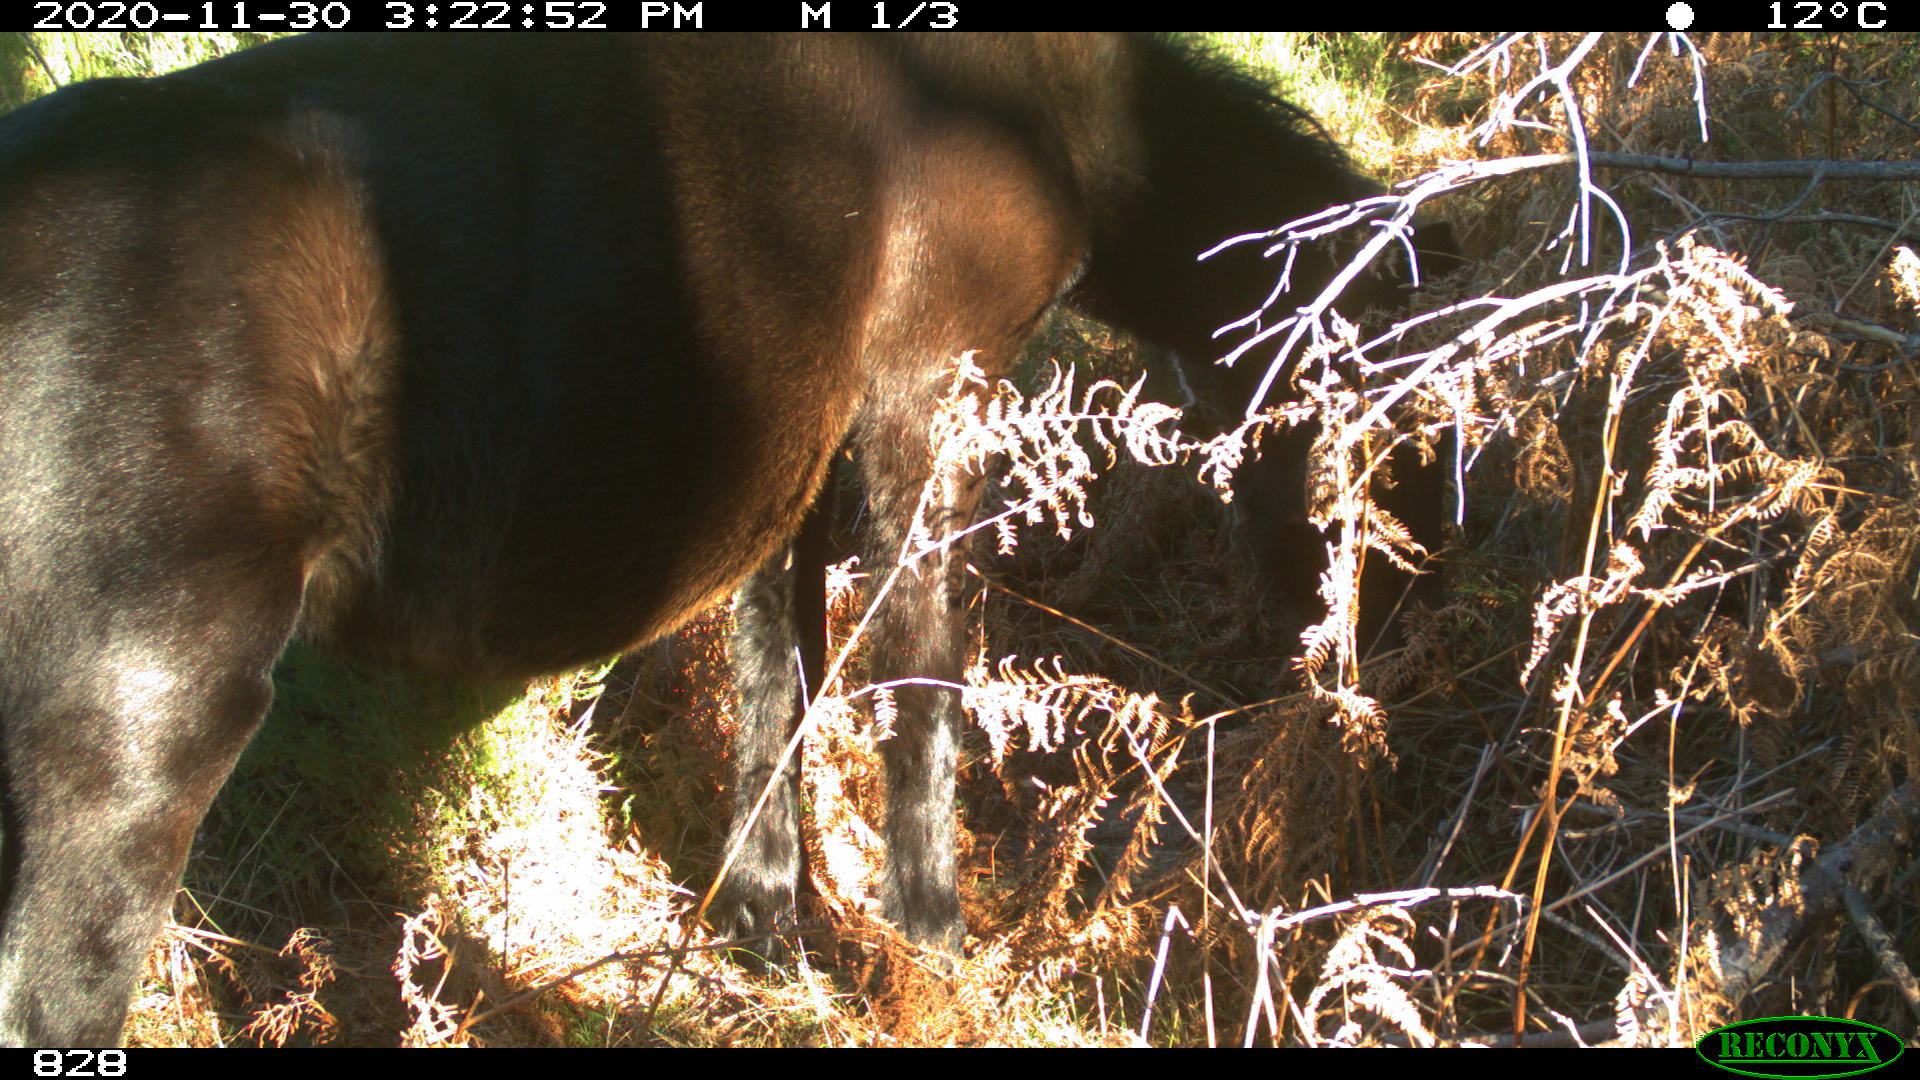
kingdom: Animalia
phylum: Chordata
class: Mammalia
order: Perissodactyla
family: Equidae
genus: Equus
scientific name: Equus caballus
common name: Horse
